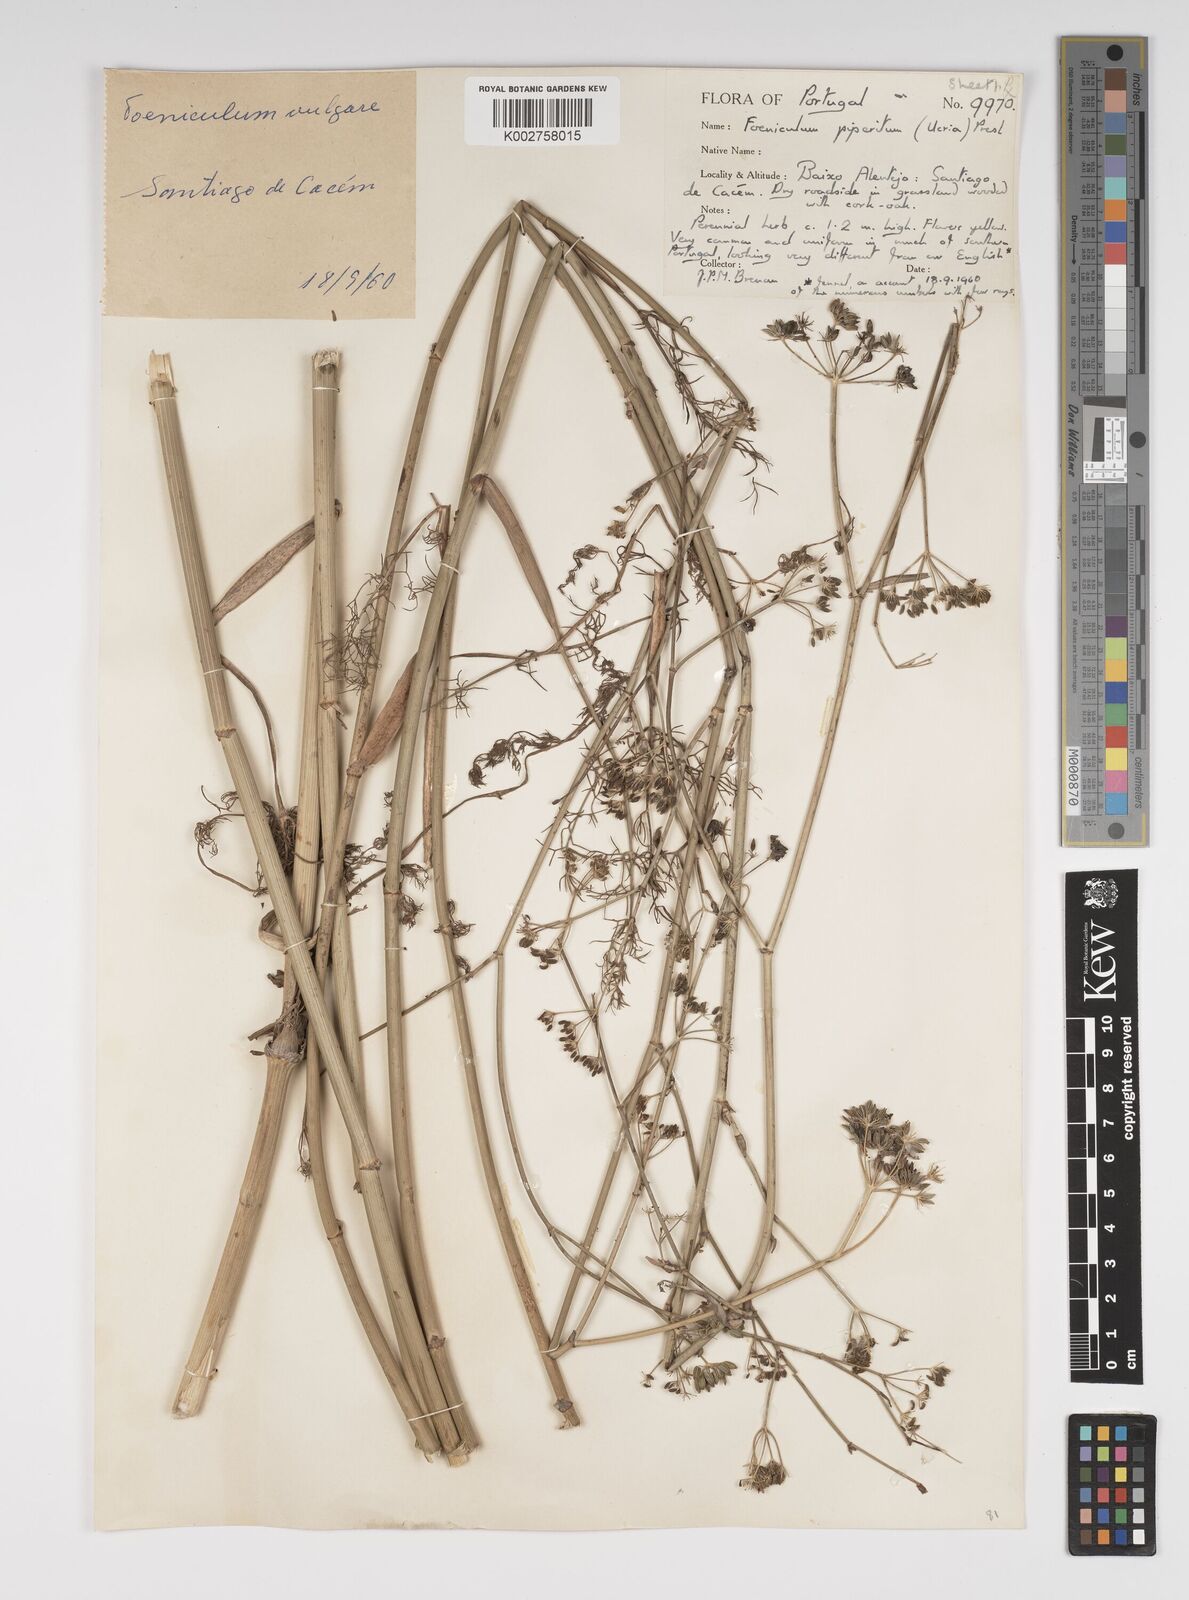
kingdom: Plantae
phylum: Tracheophyta
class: Magnoliopsida
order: Apiales
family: Apiaceae
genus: Foeniculum
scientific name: Foeniculum vulgare
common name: Fennel
